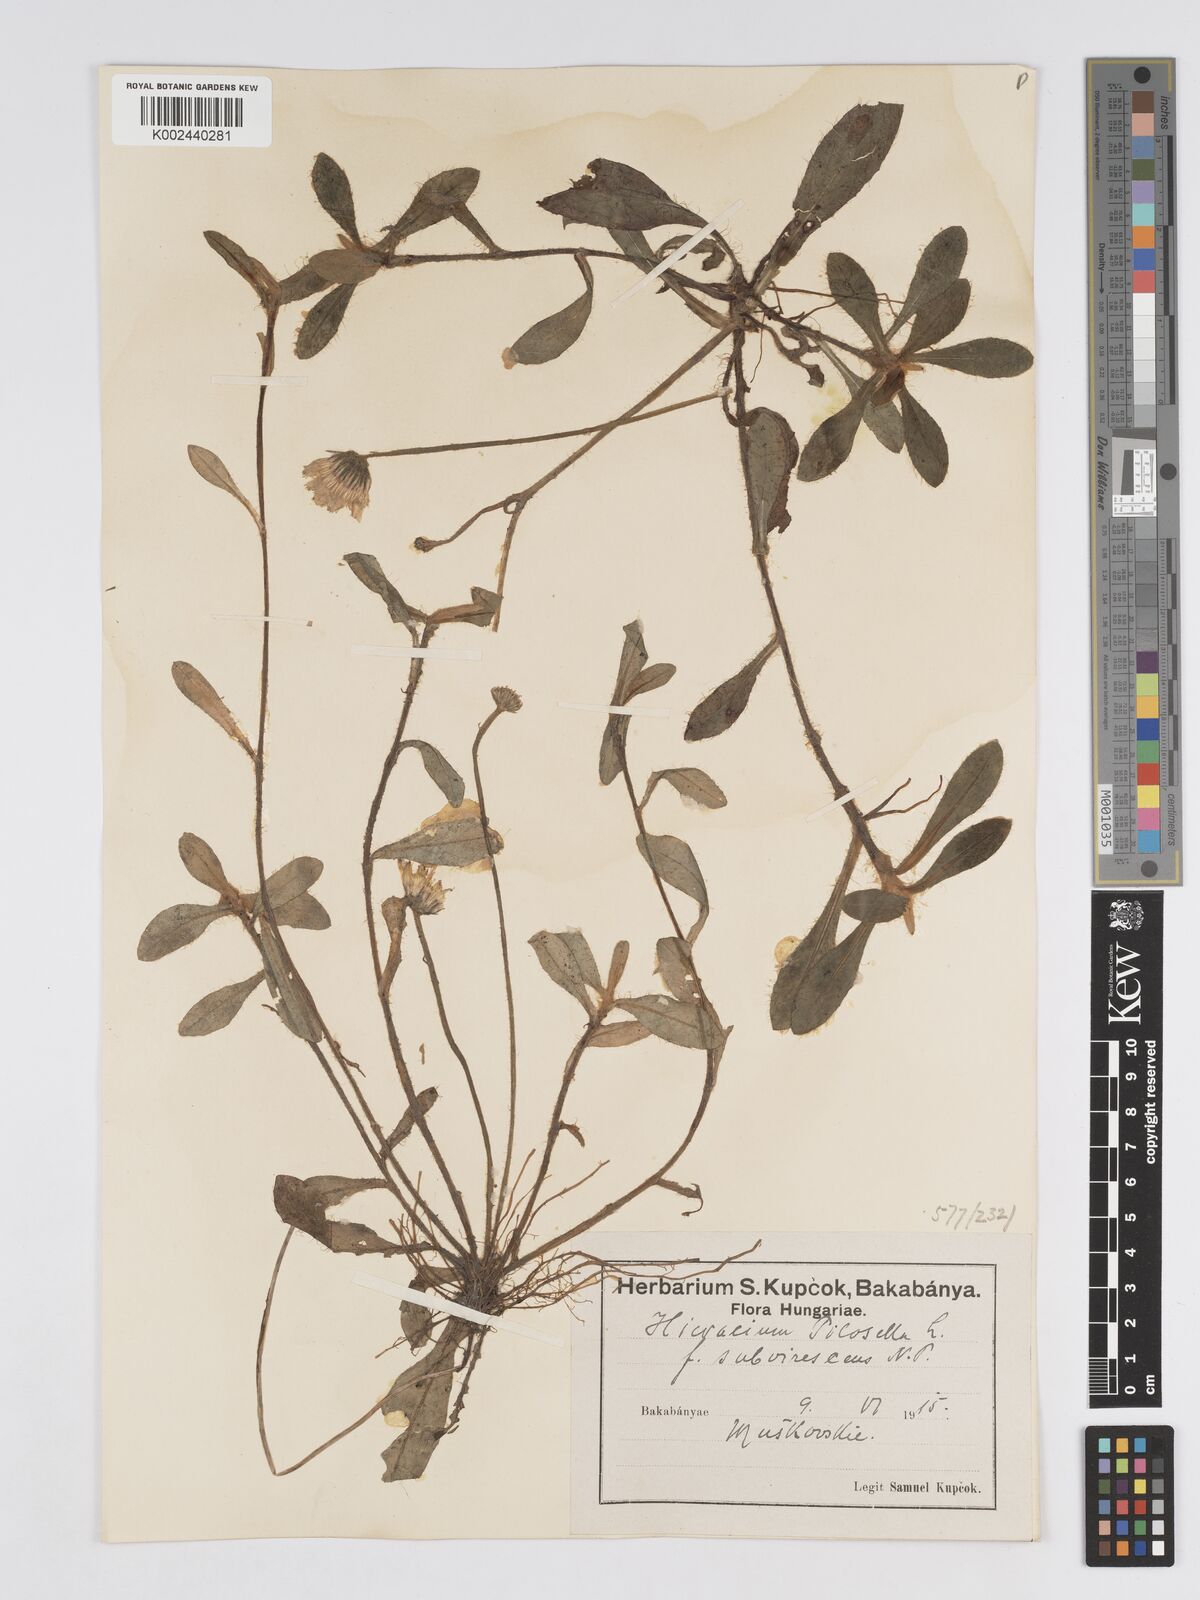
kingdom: Plantae
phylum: Tracheophyta
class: Magnoliopsida
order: Asterales
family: Asteraceae
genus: Pilosella
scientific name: Pilosella officinarum
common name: Mouse-ear hawkweed
